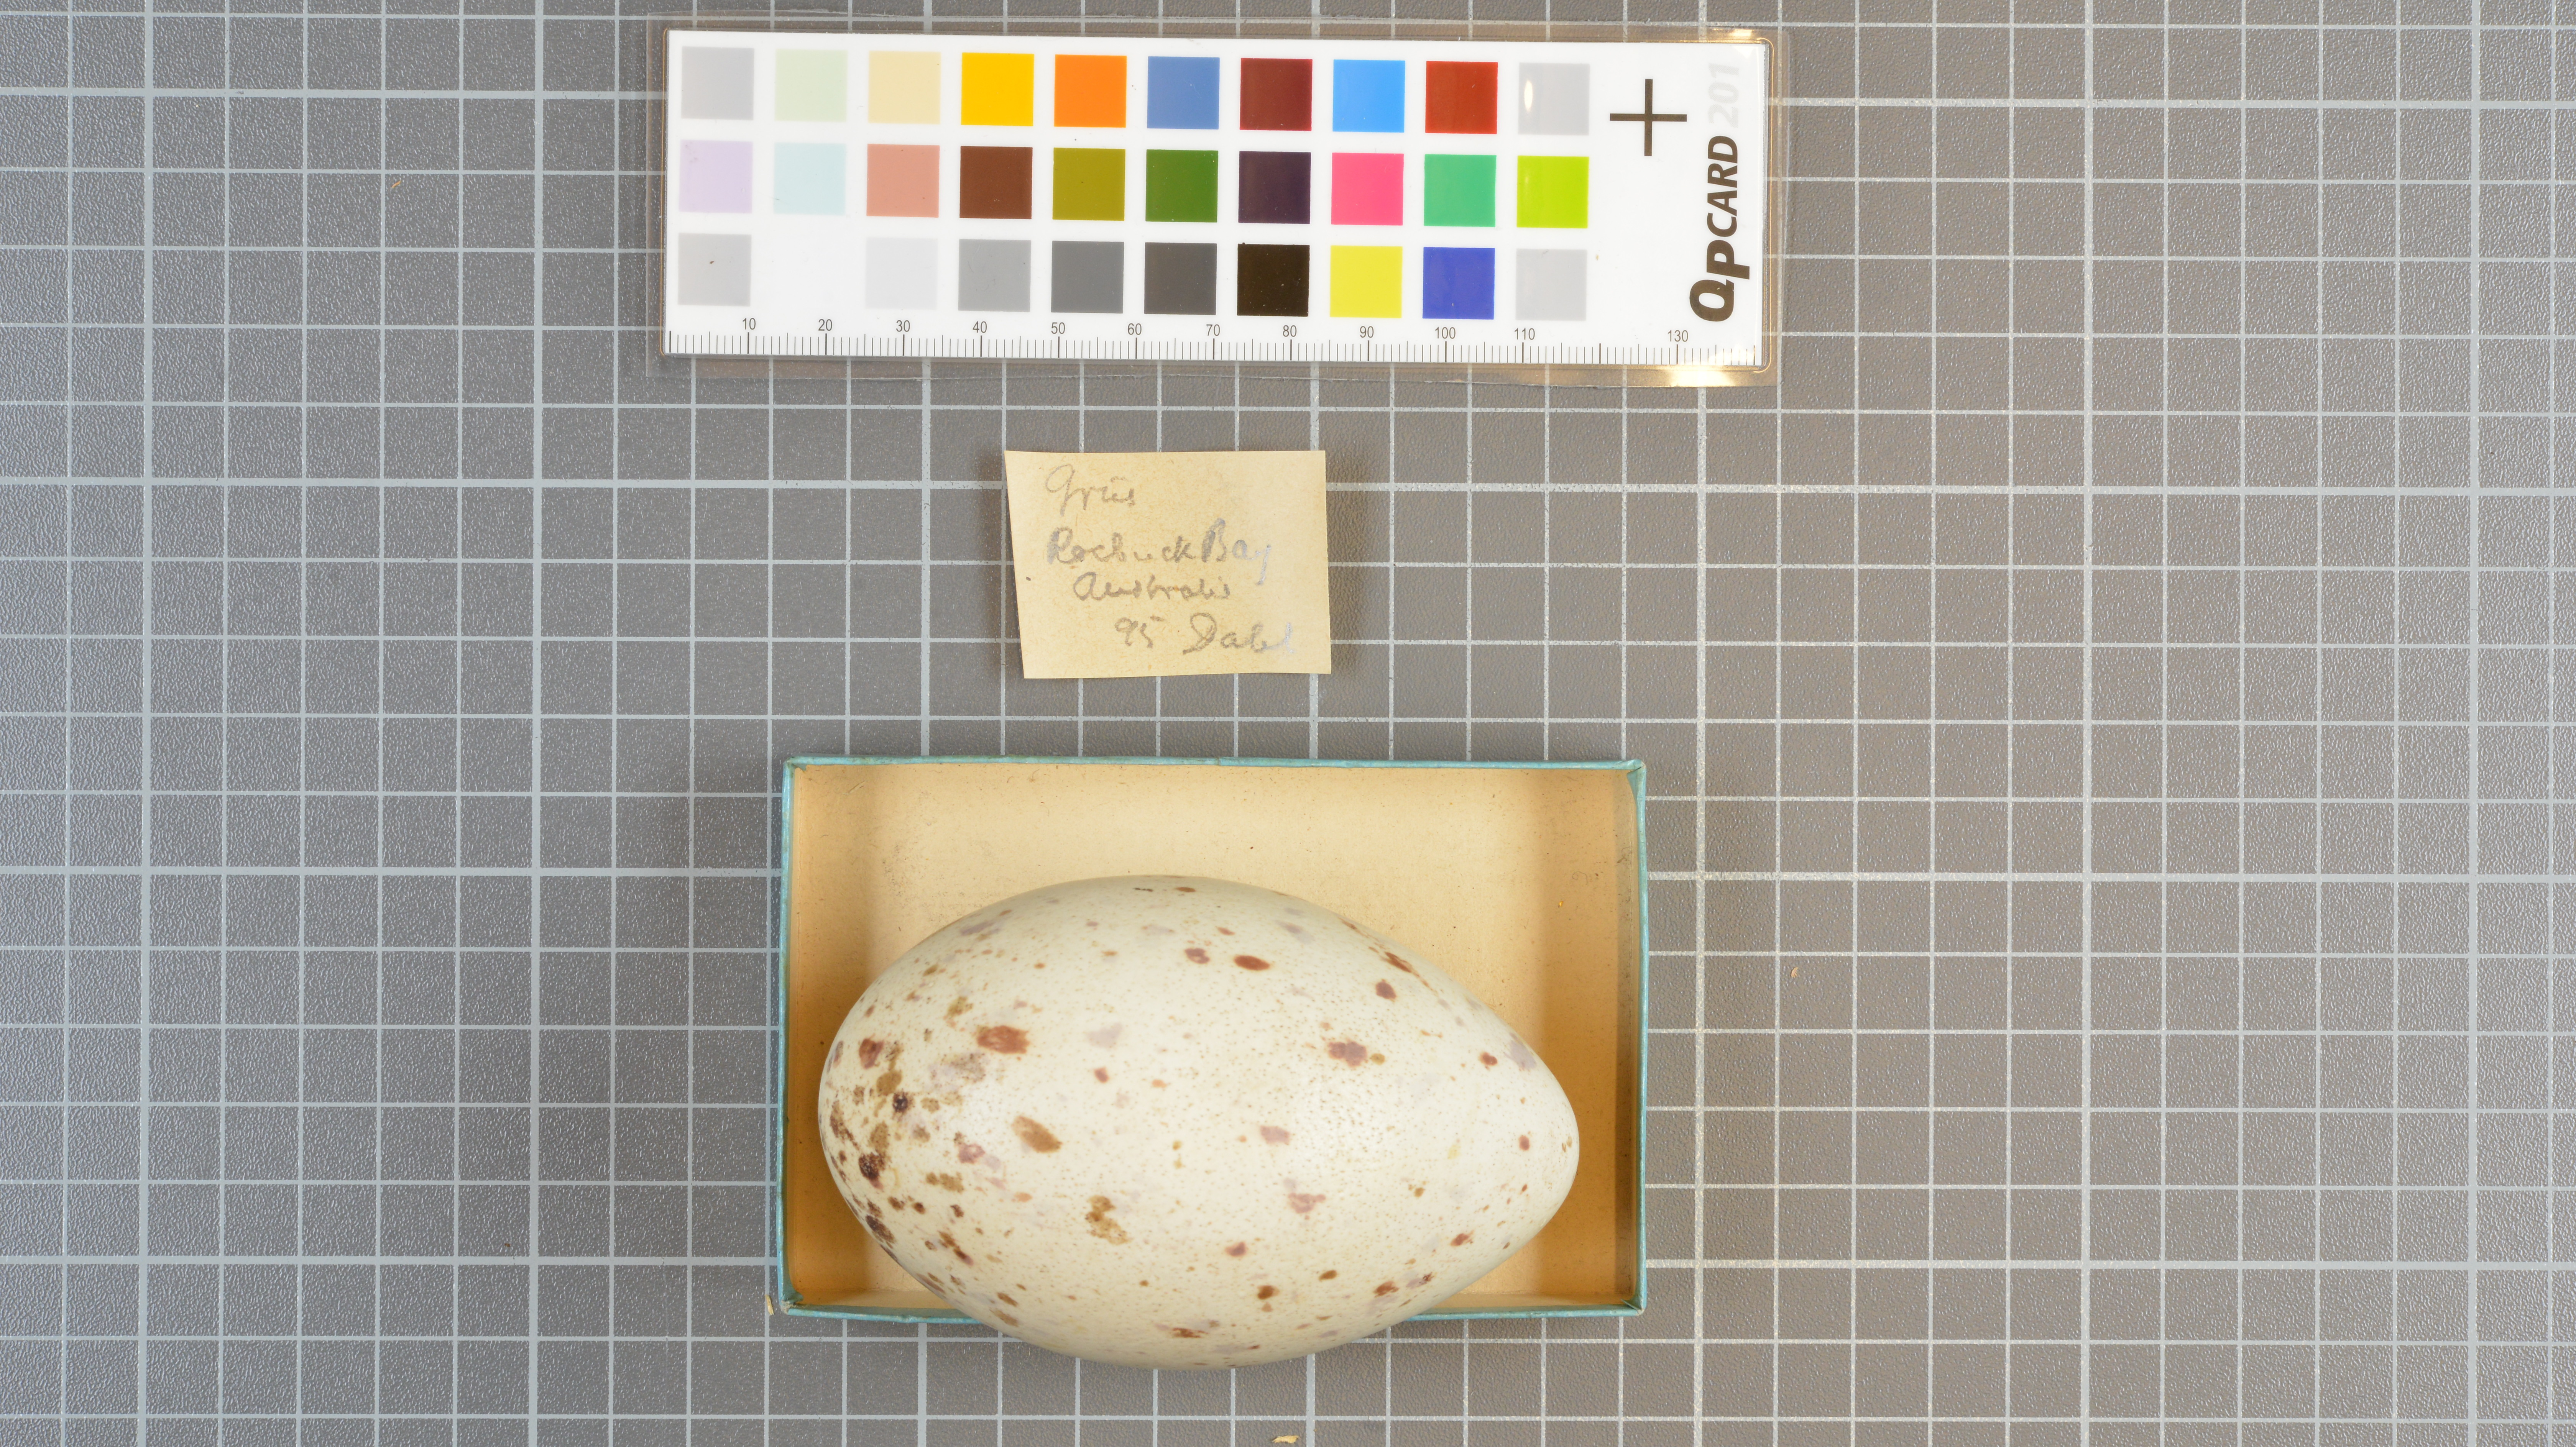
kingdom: Animalia
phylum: Chordata
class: Aves
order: Gruiformes
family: Gruidae
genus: Grus
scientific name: Grus
